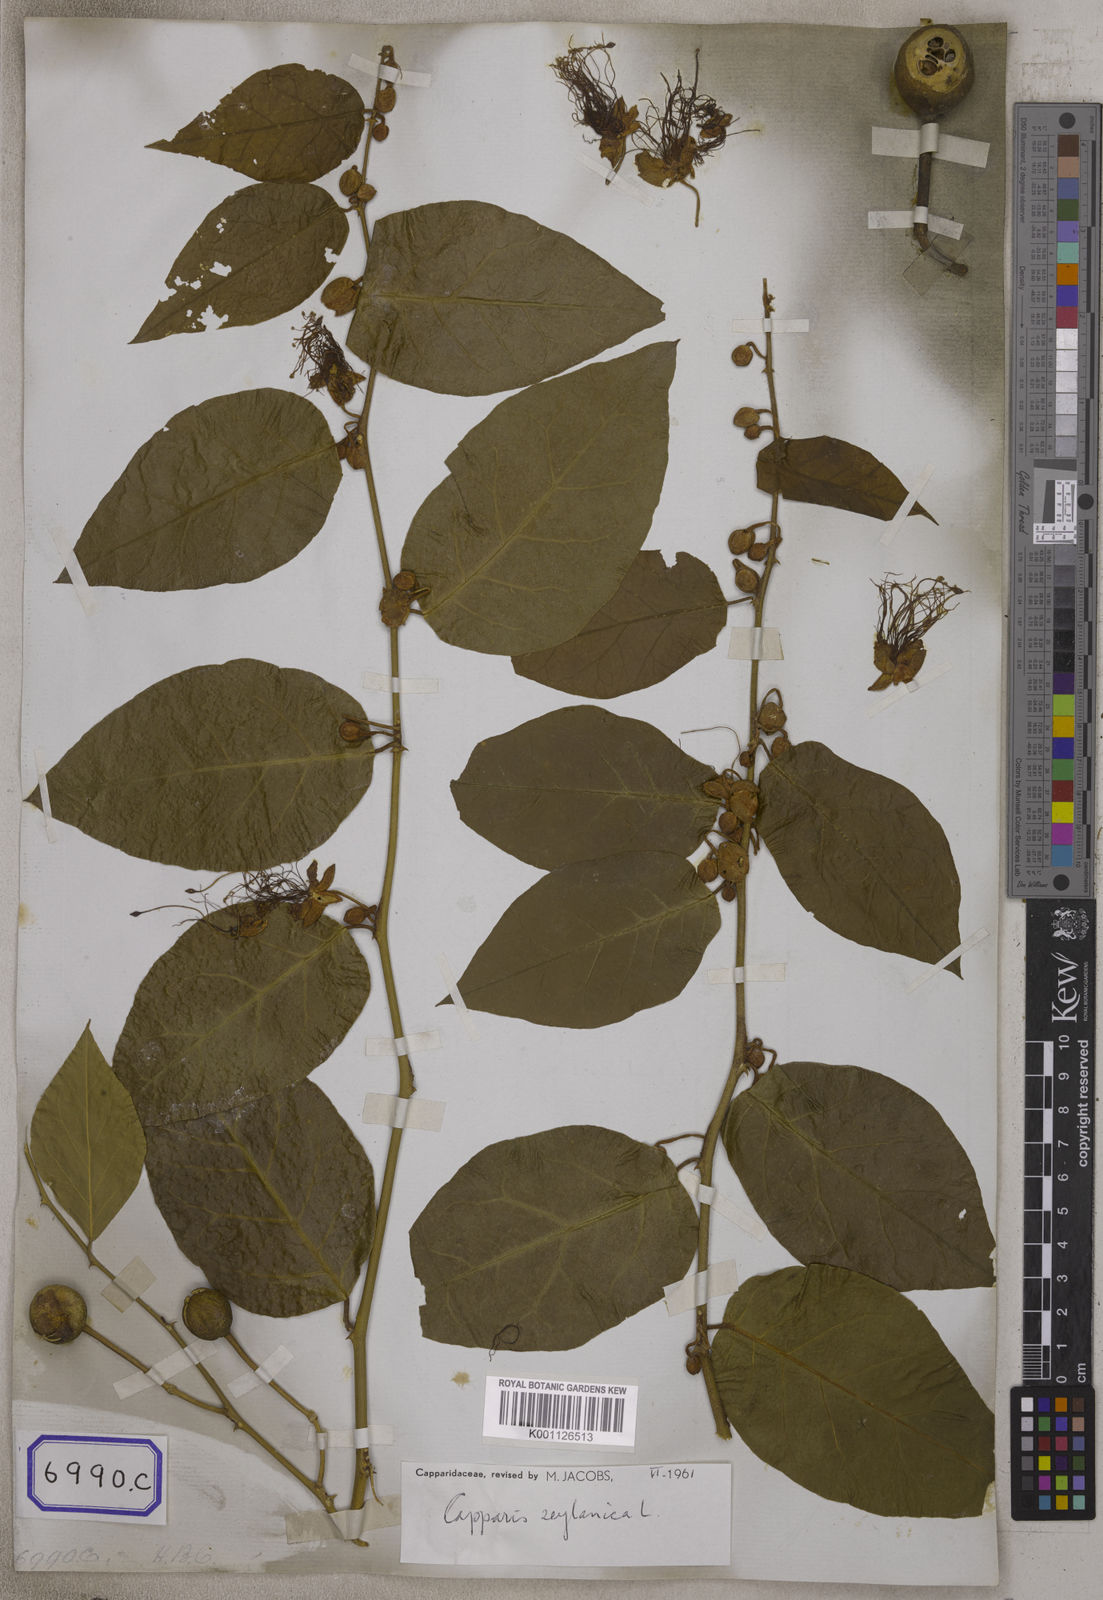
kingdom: Plantae
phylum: Tracheophyta
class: Magnoliopsida
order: Brassicales
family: Capparaceae
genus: Capparis
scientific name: Capparis
